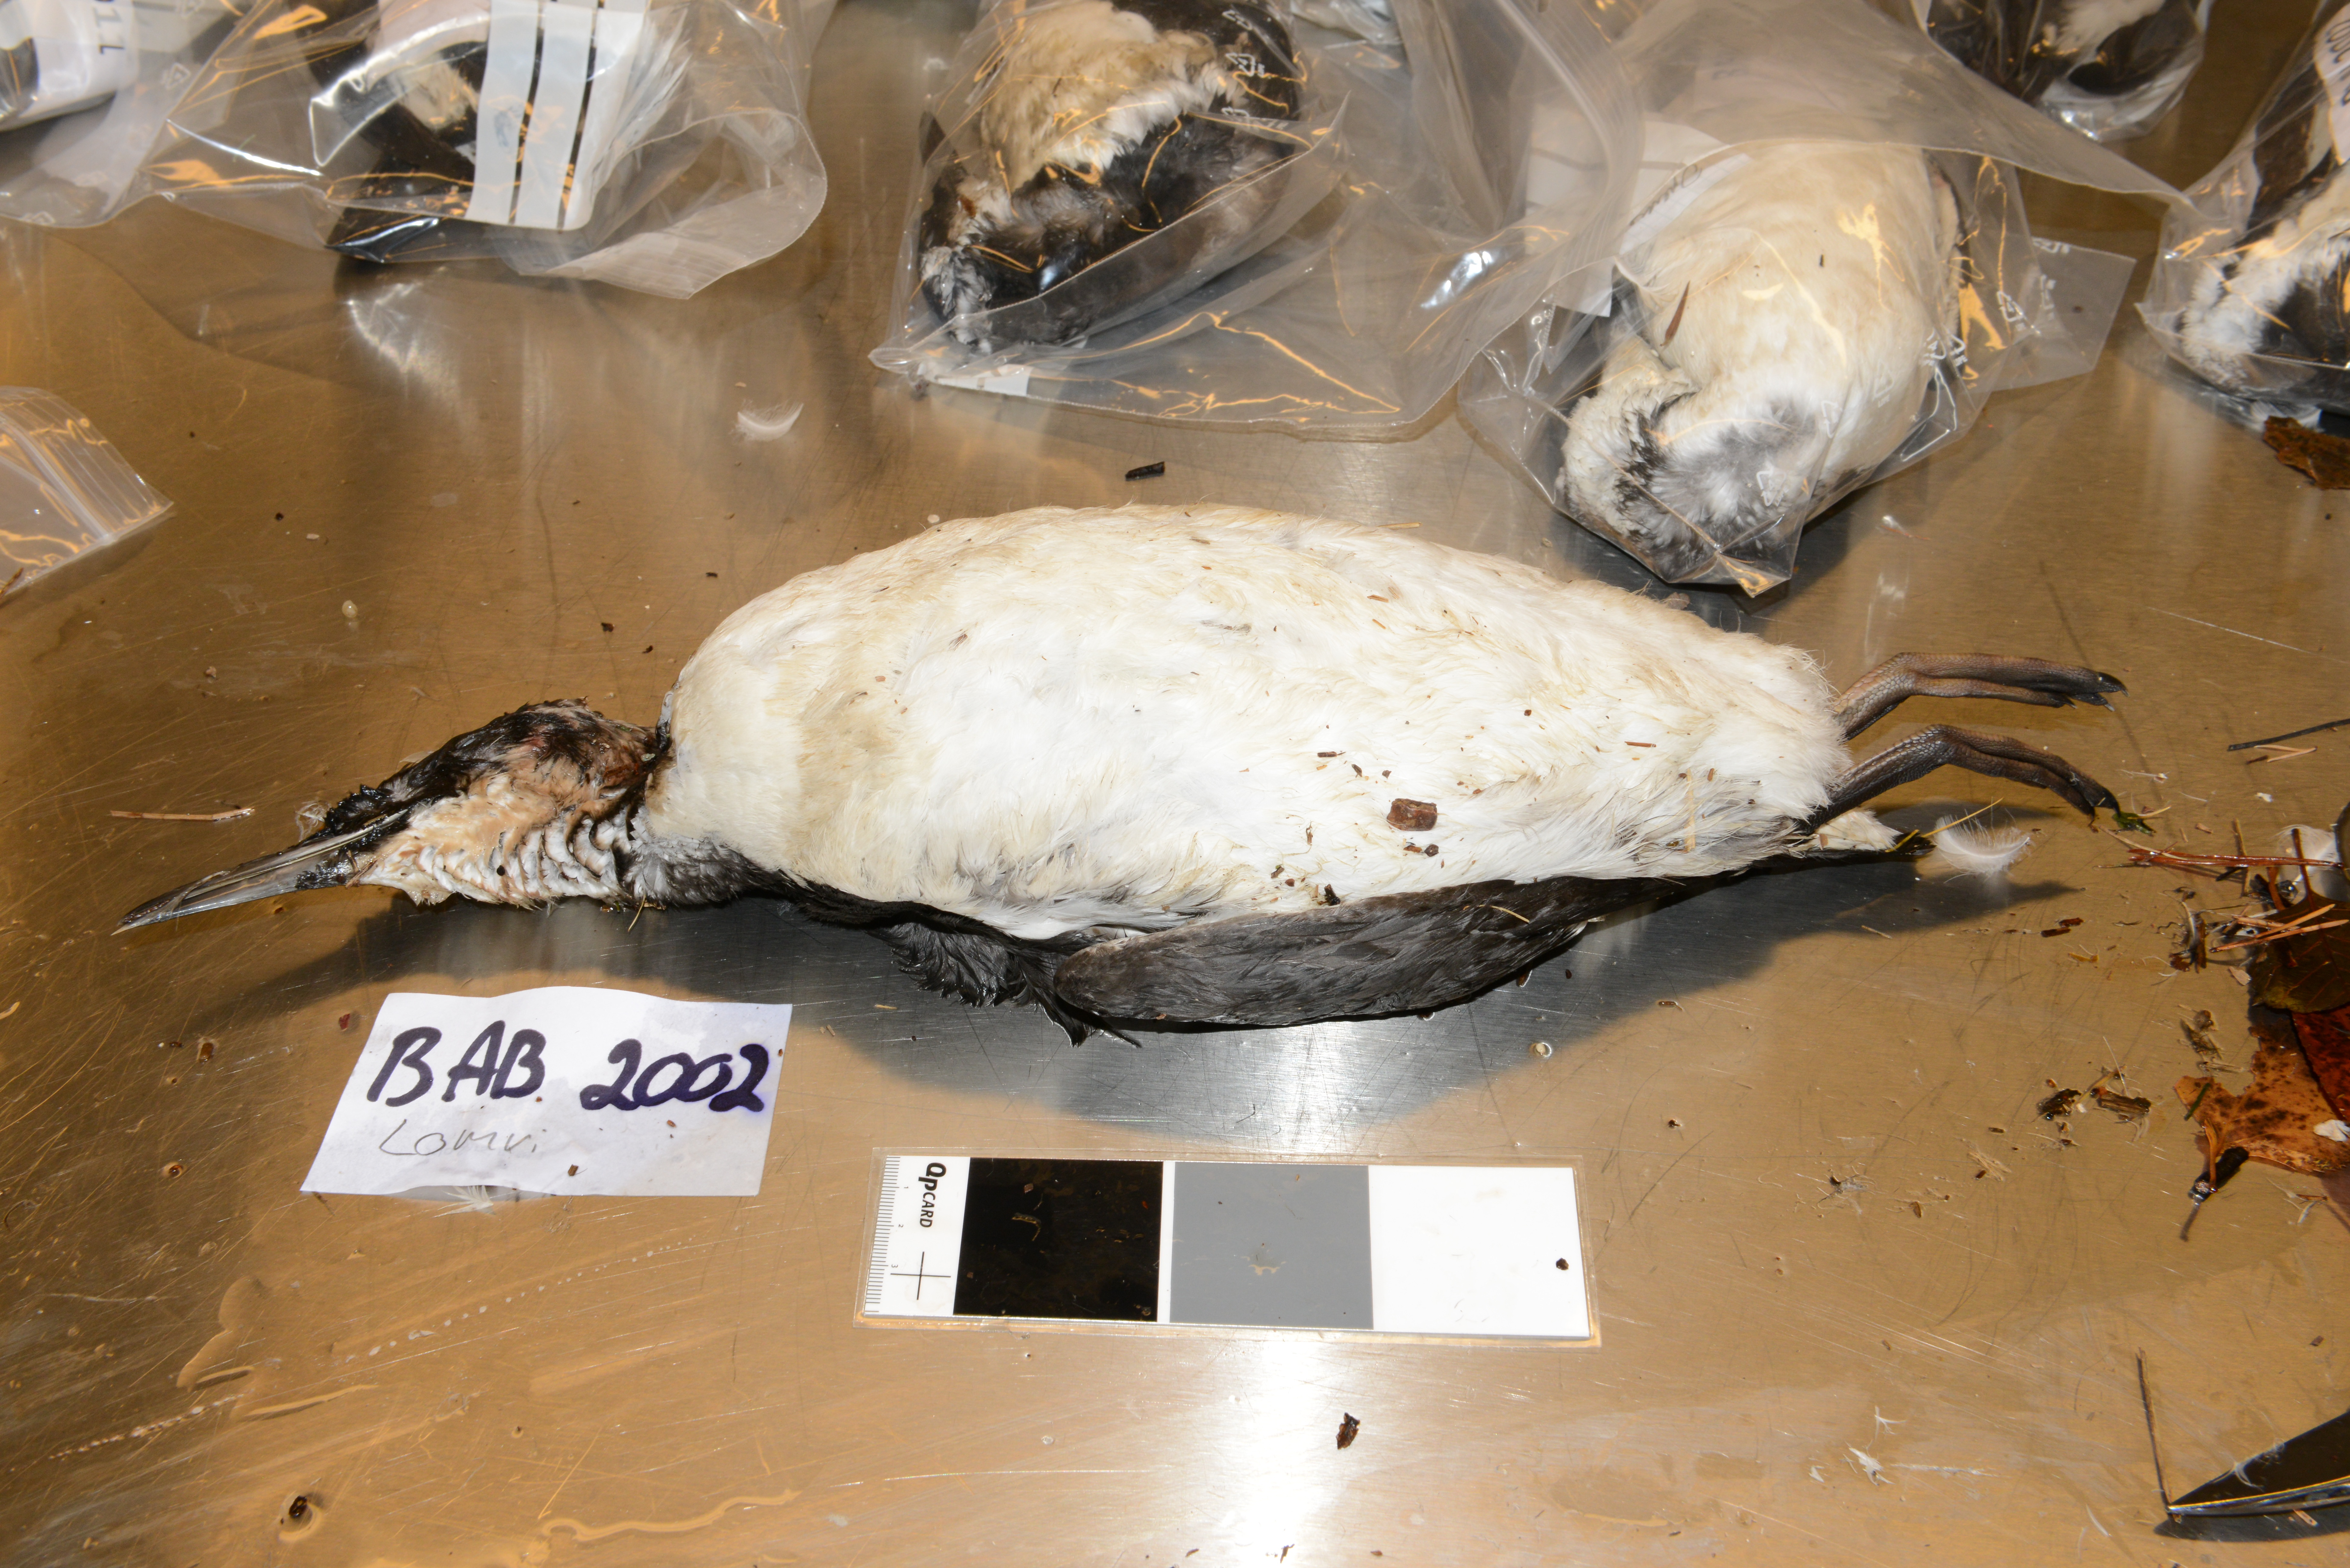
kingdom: Animalia
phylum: Chordata
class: Aves
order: Charadriiformes
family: Alcidae
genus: Uria
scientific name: Uria aalge
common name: Common murre
